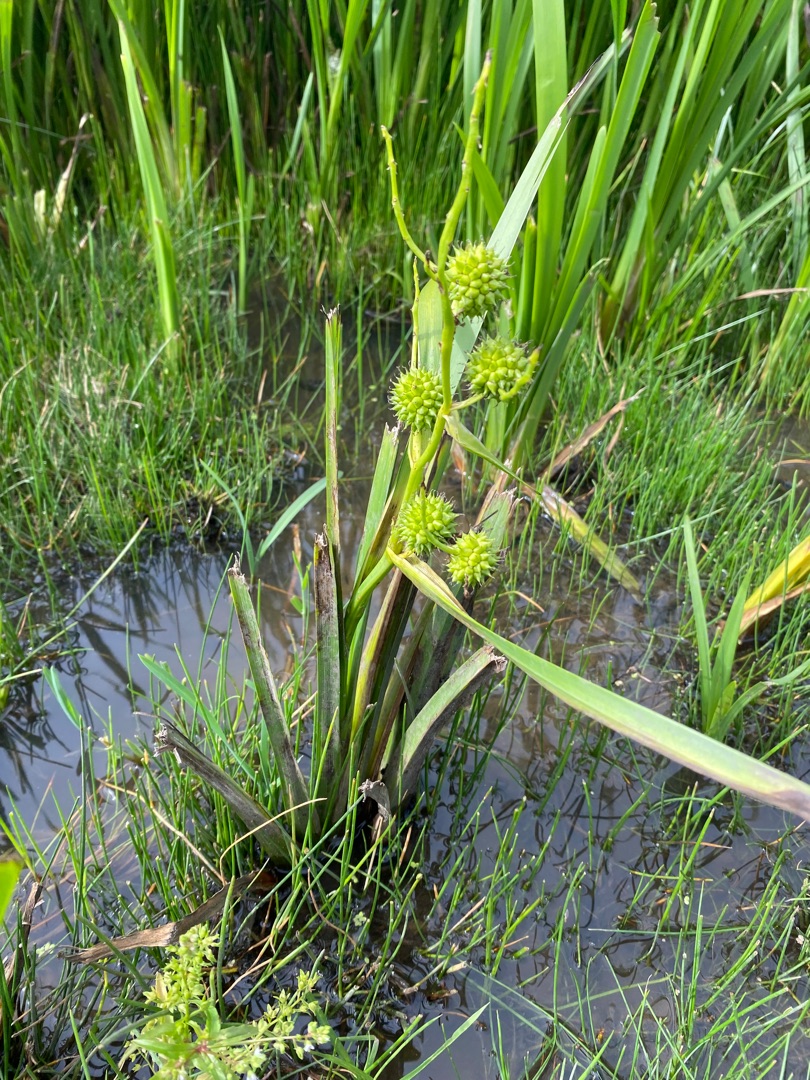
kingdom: Plantae
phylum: Tracheophyta
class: Liliopsida
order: Poales
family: Typhaceae
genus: Sparganium
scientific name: Sparganium erectum
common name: Sodfarvet pindsvineknop
